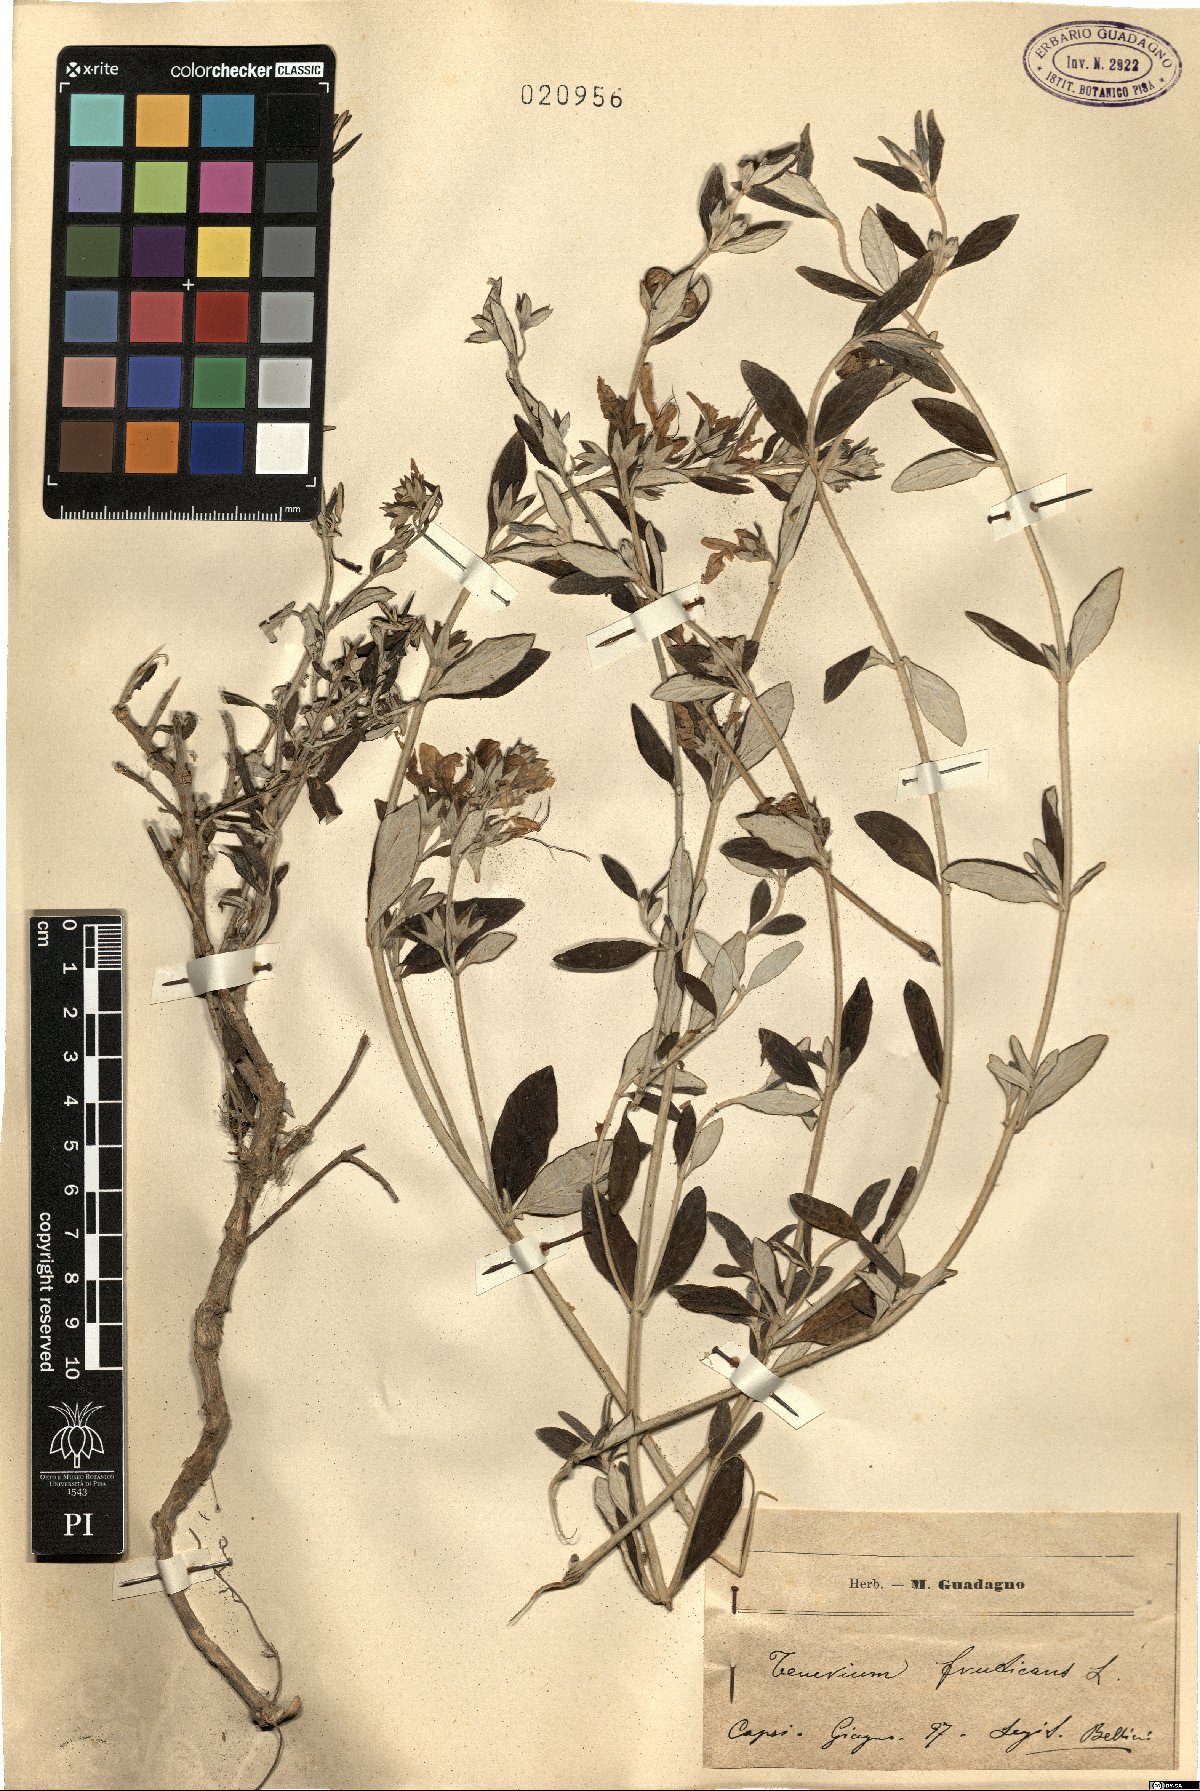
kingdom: Plantae
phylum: Tracheophyta
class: Magnoliopsida
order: Lamiales
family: Lamiaceae
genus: Teucrium
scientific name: Teucrium fruticans
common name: Shrubby germander
